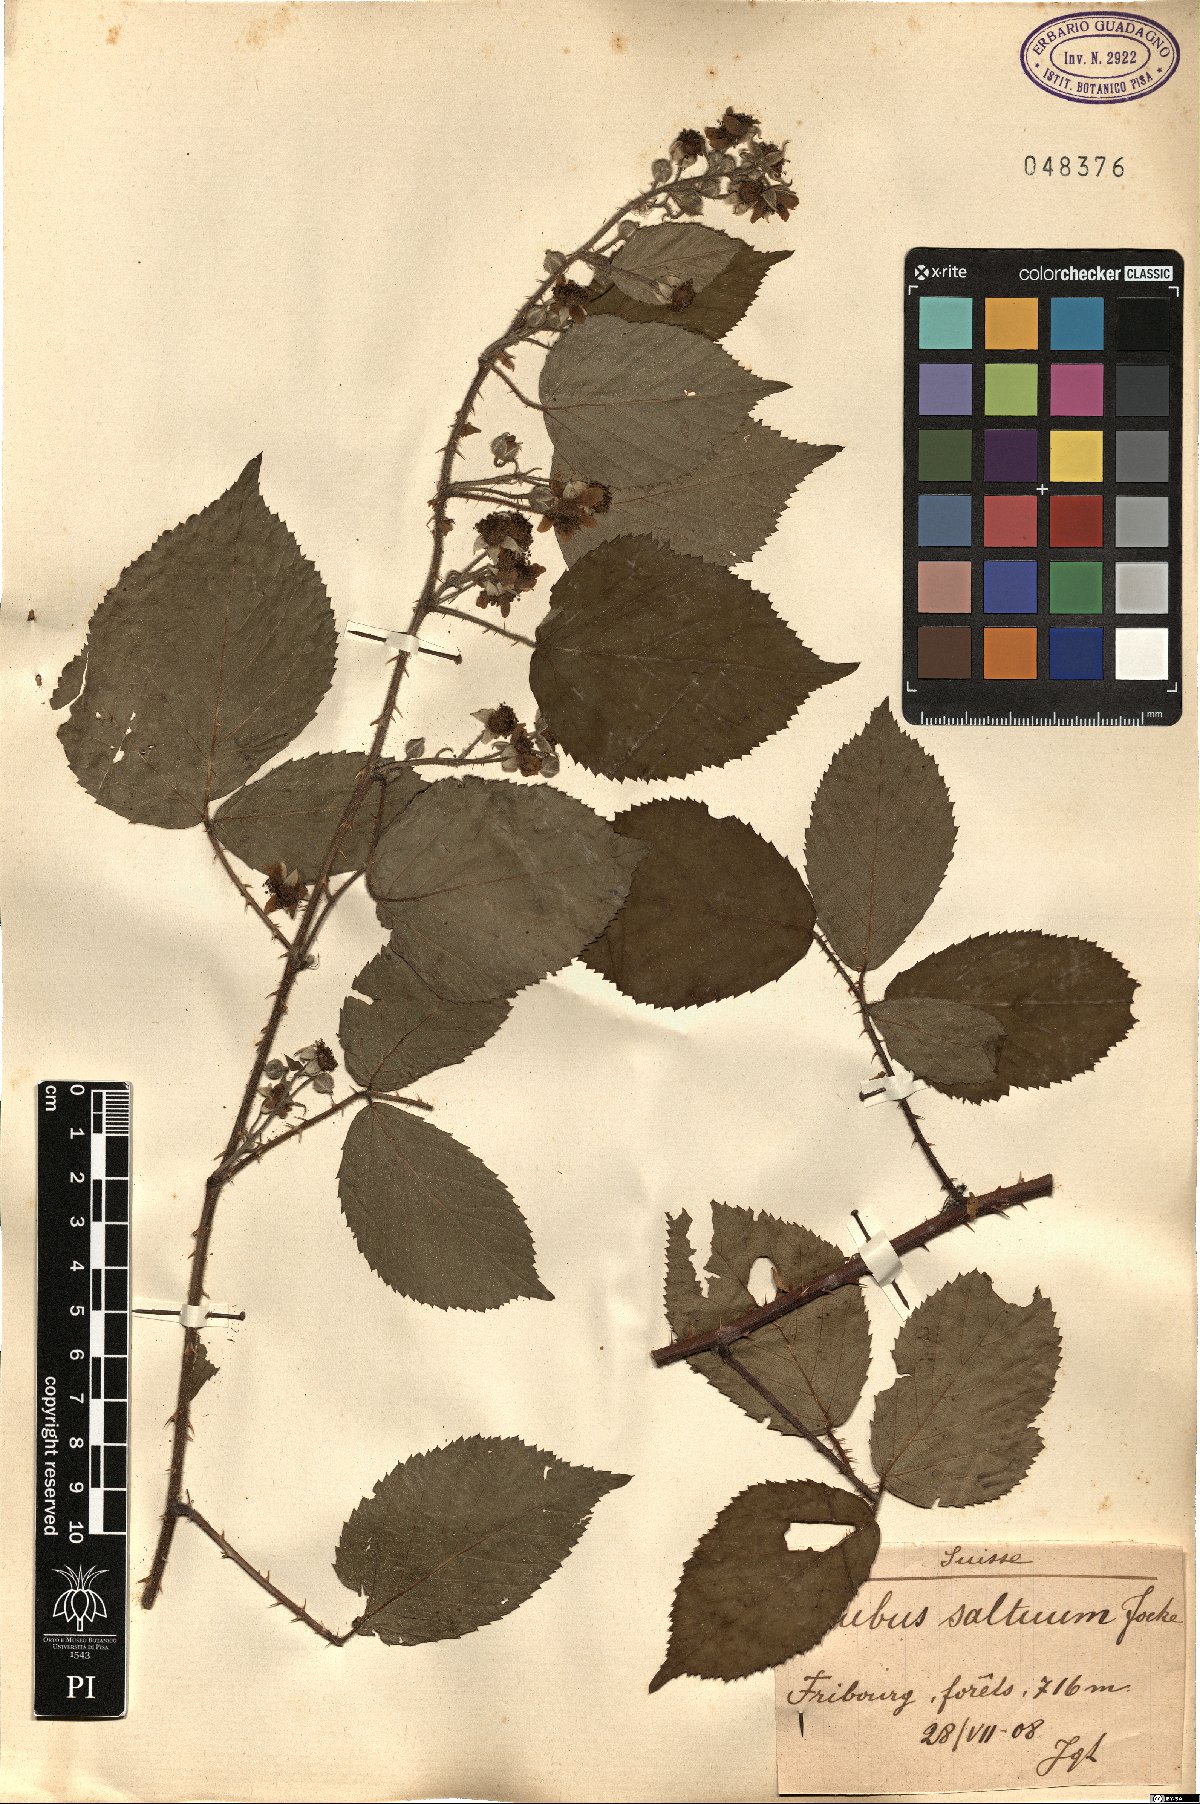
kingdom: Plantae
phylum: Tracheophyta
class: Magnoliopsida
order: Rosales
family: Rosaceae
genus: Rubus
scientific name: Rubus saltuum
